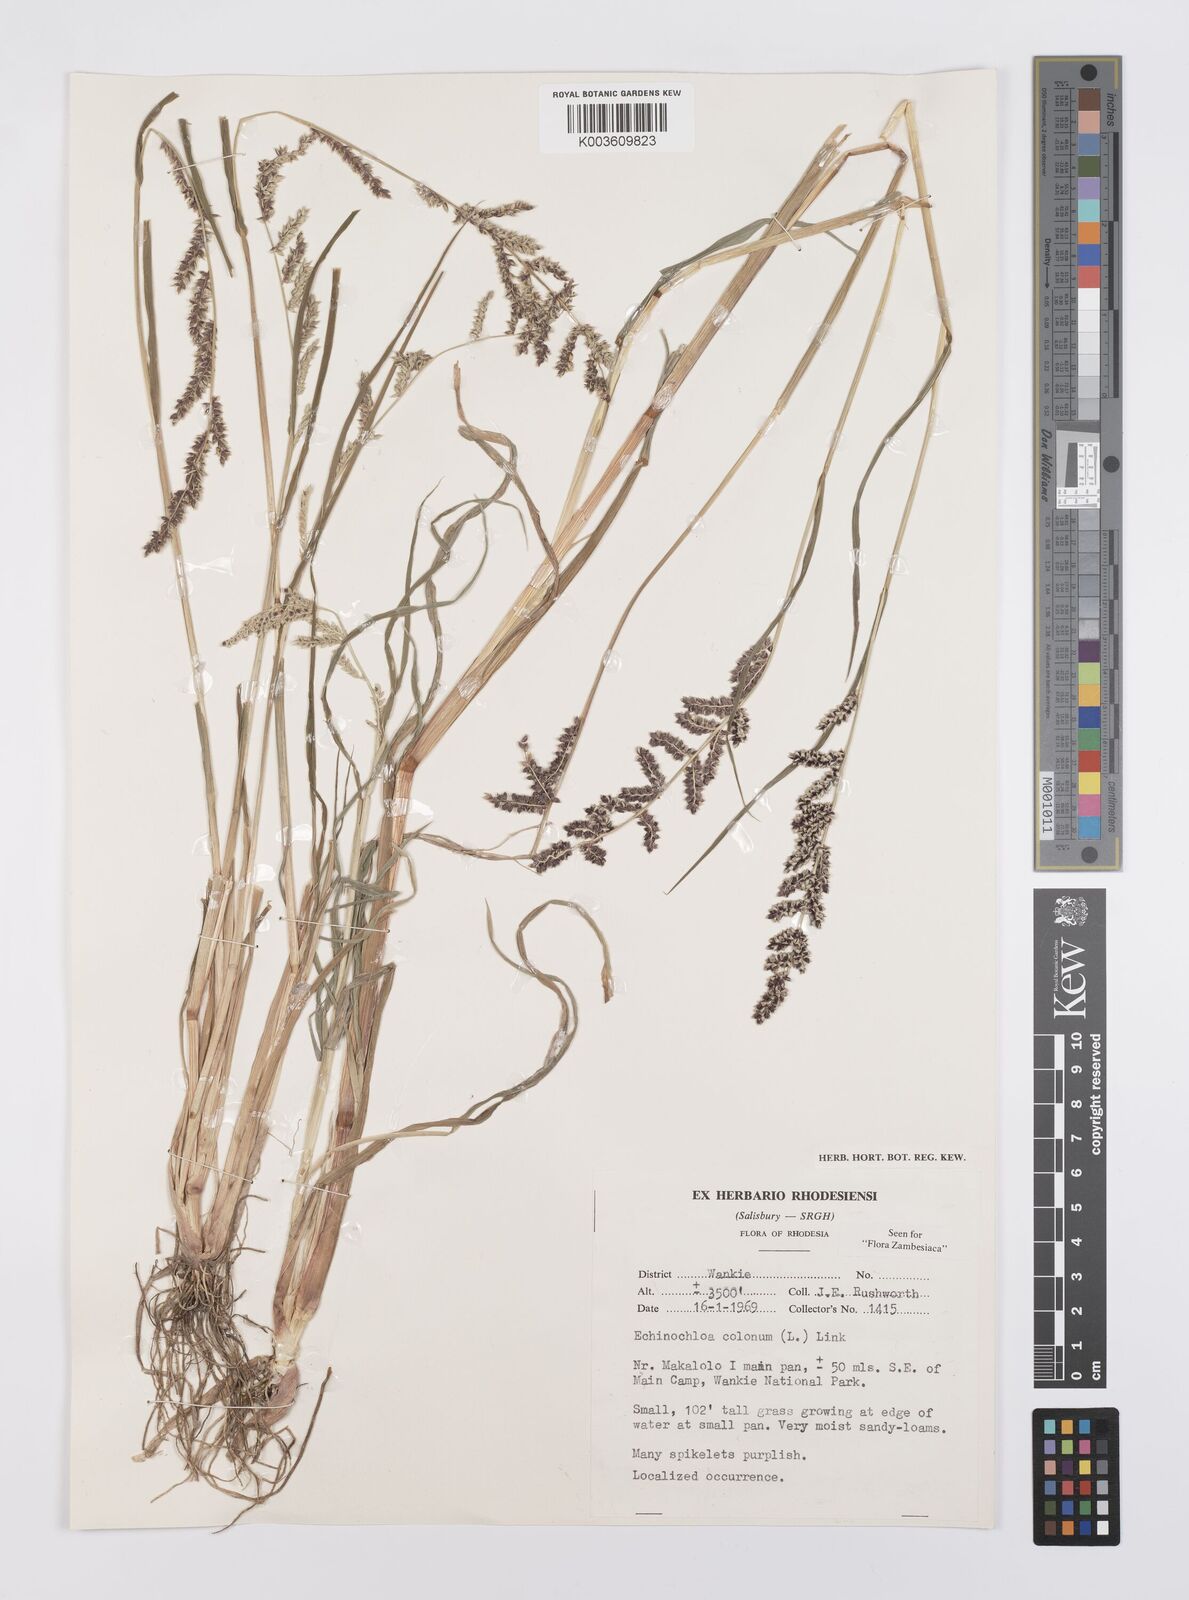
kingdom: Plantae
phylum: Tracheophyta
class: Liliopsida
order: Poales
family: Poaceae
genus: Echinochloa
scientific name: Echinochloa colonum
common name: Jungle rice
